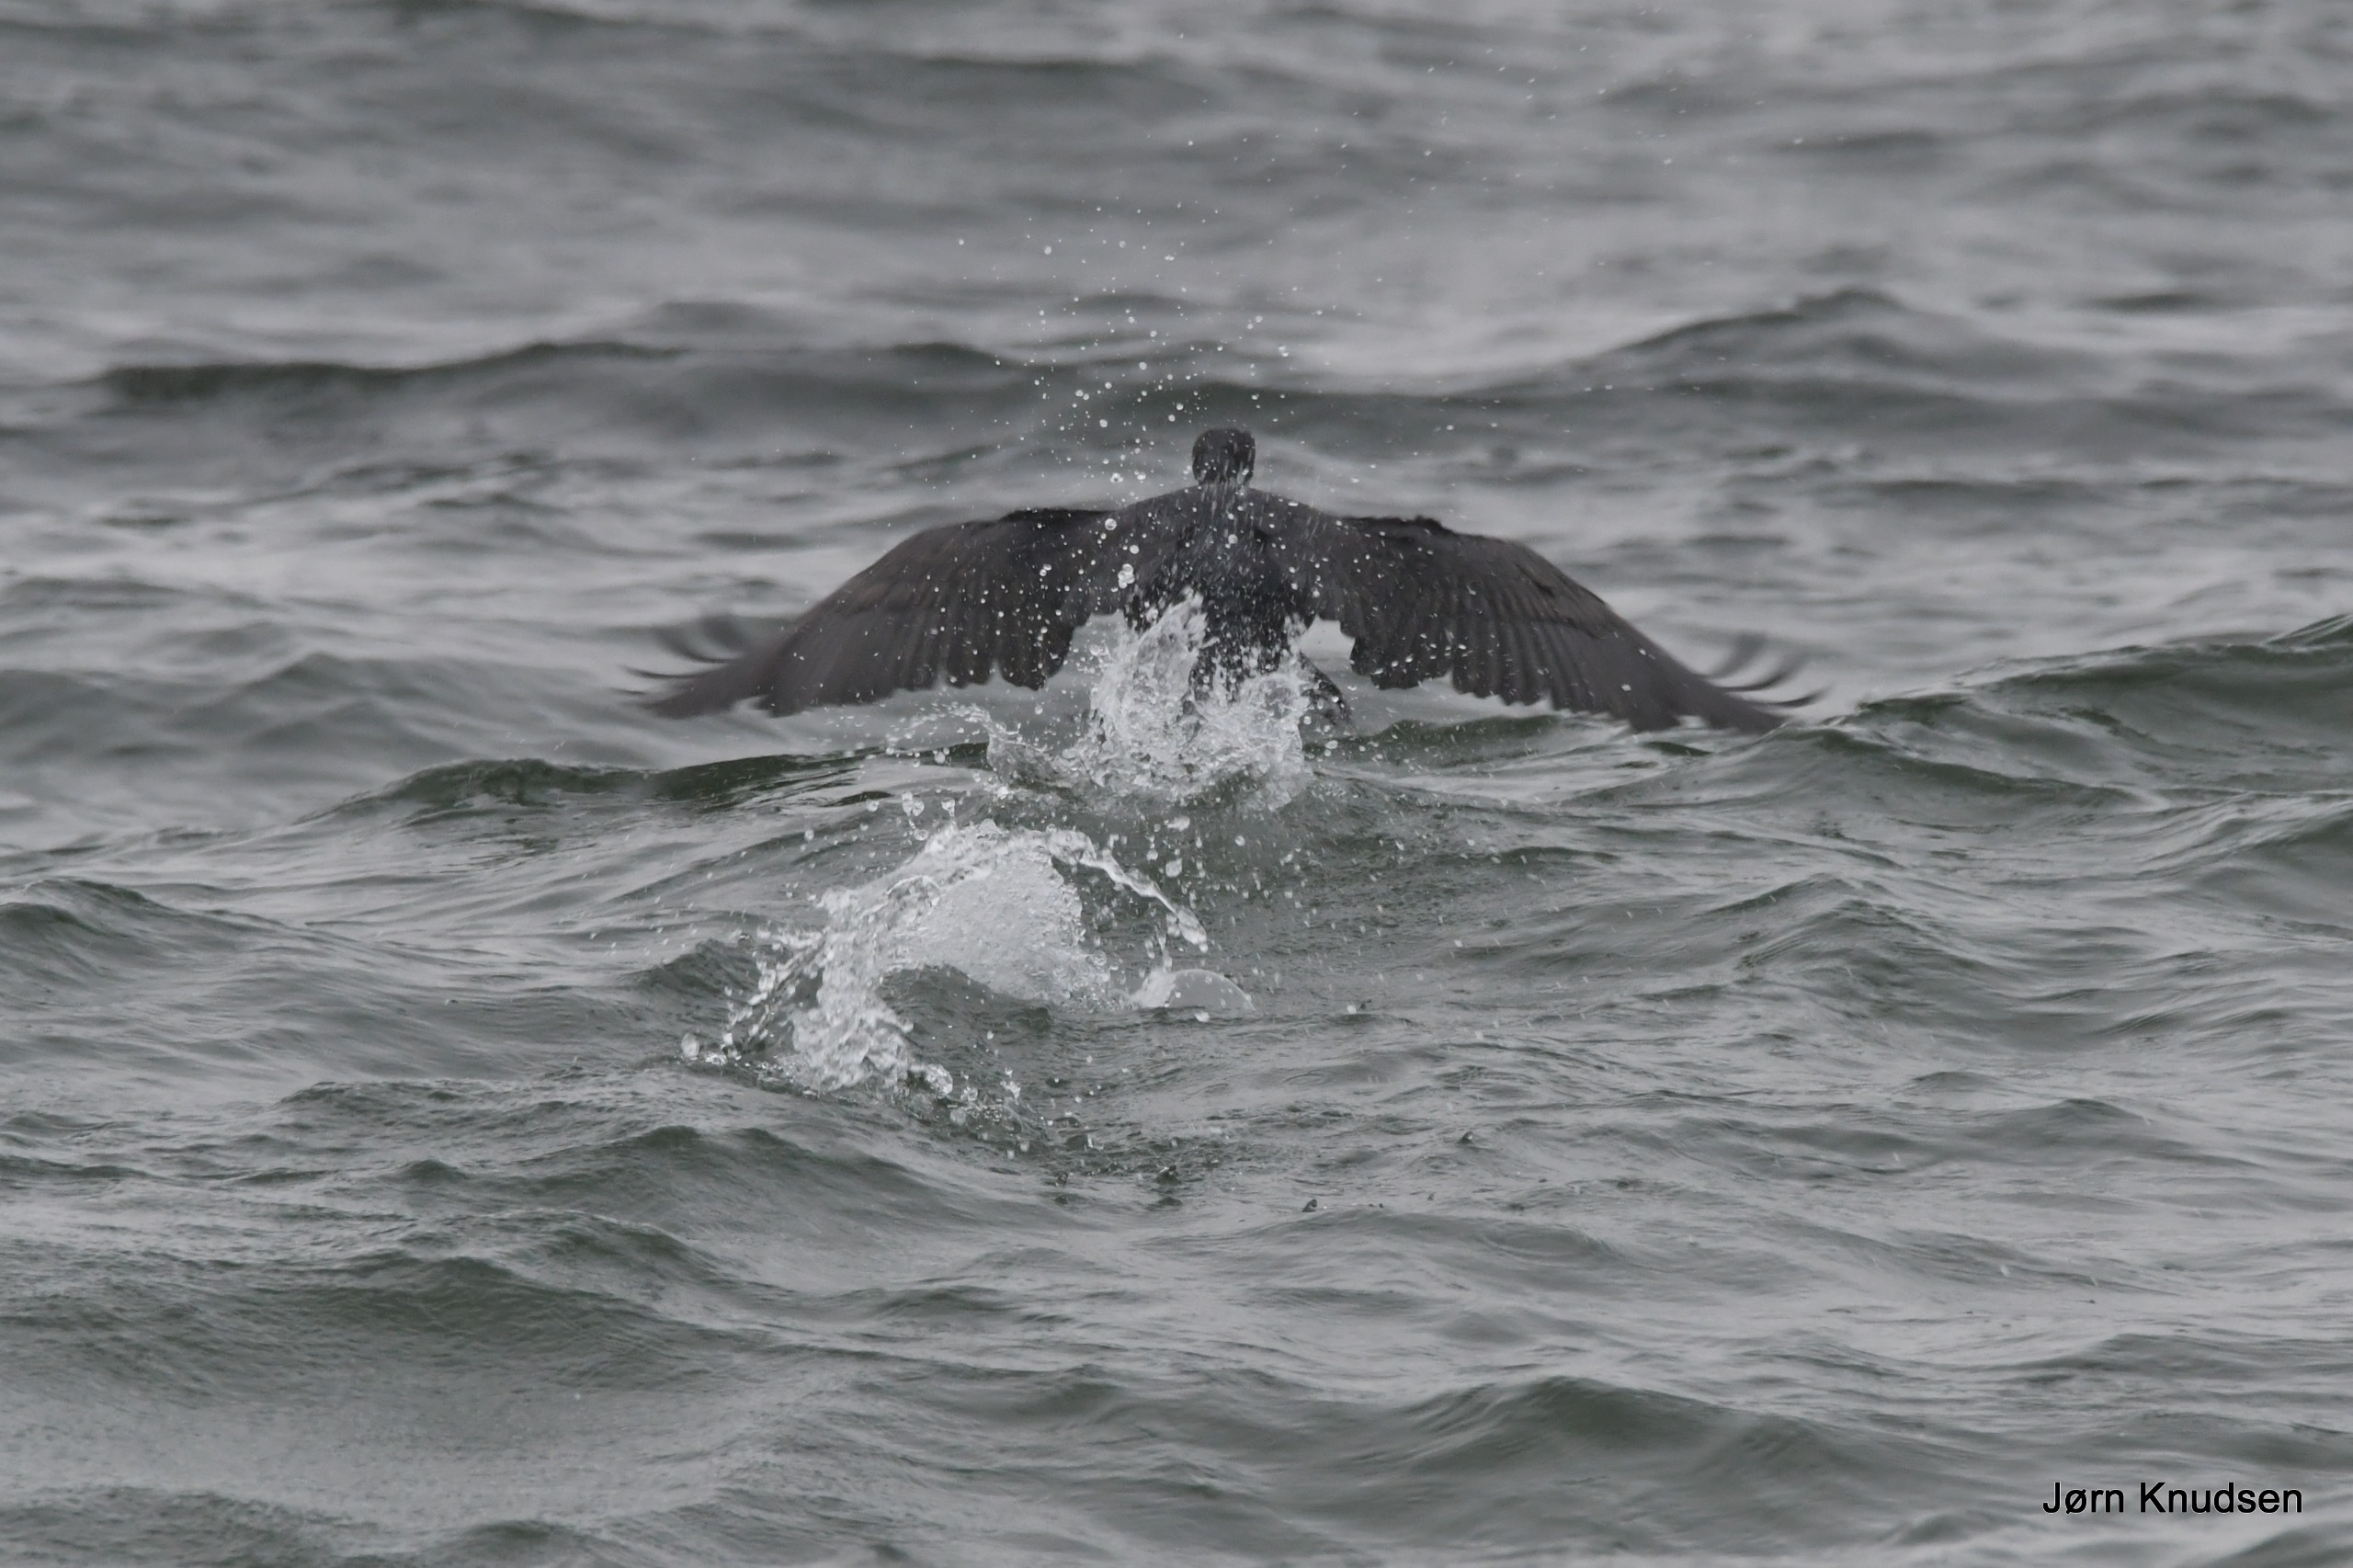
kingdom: Animalia
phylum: Chordata
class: Aves
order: Suliformes
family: Phalacrocoracidae
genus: Phalacrocorax
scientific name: Phalacrocorax carbo
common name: Skarv
